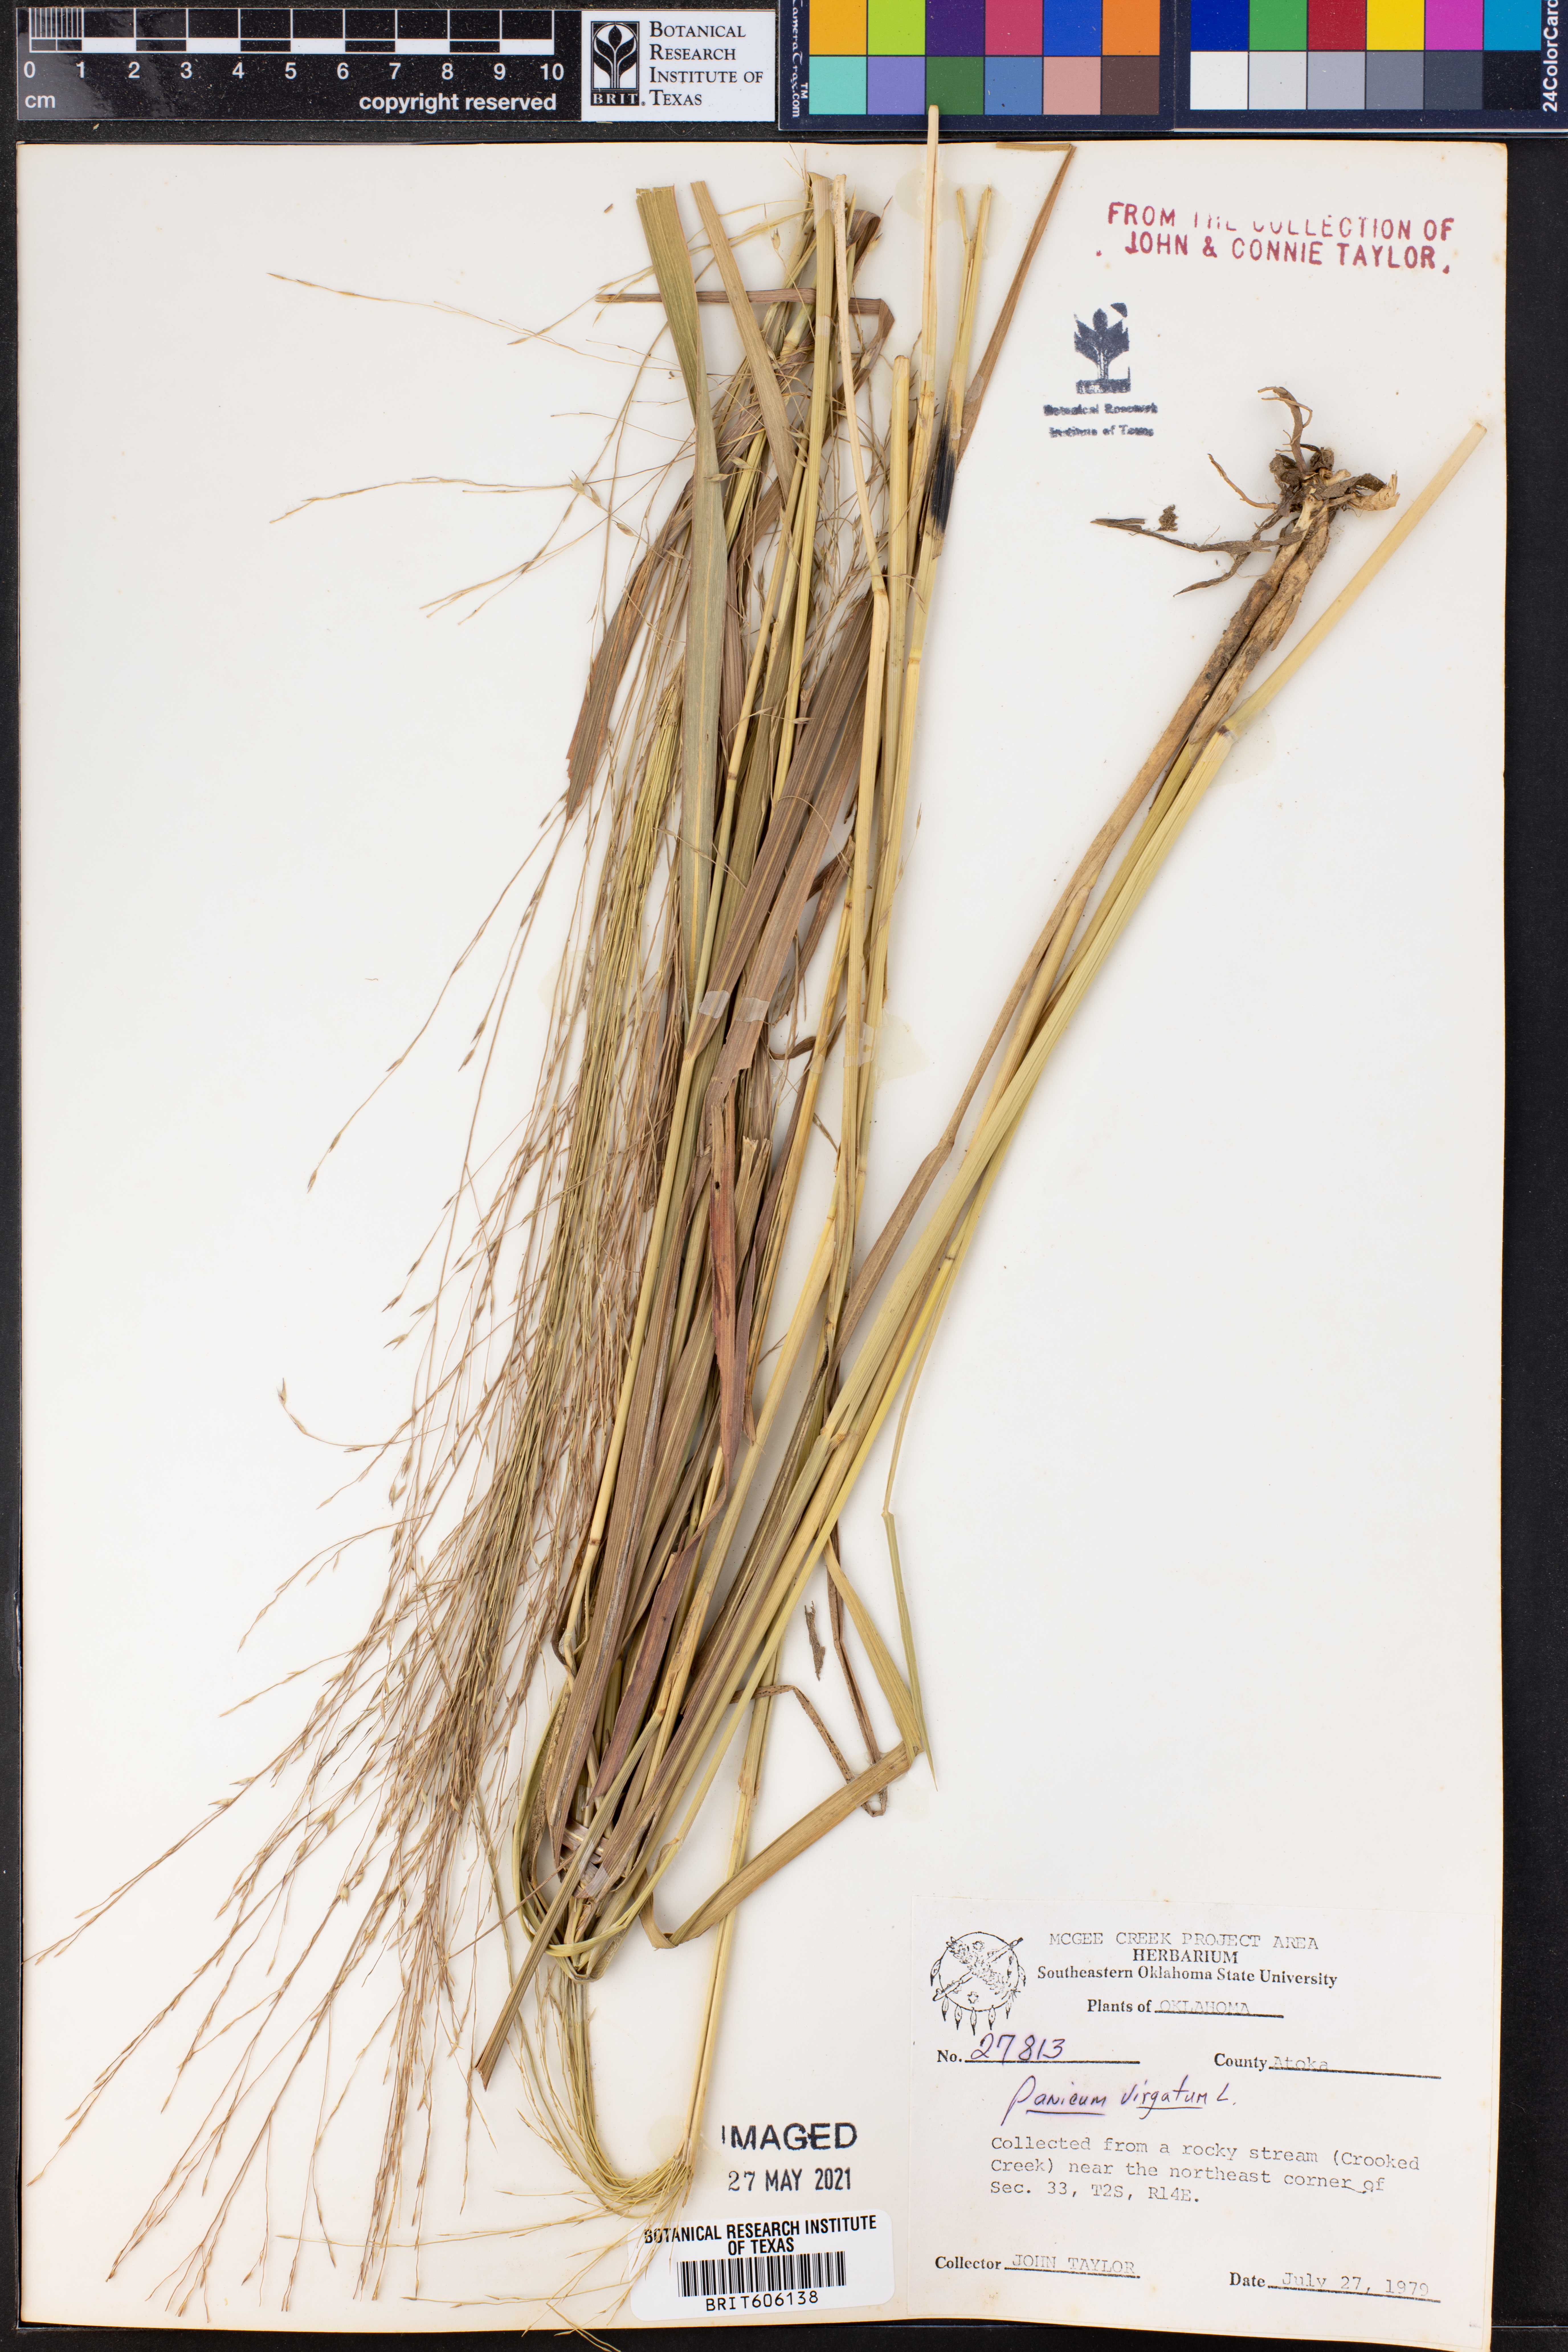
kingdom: Plantae
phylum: Tracheophyta
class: Liliopsida
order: Poales
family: Poaceae
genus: Panicum
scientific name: Panicum virgatum
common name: Switchgrass
